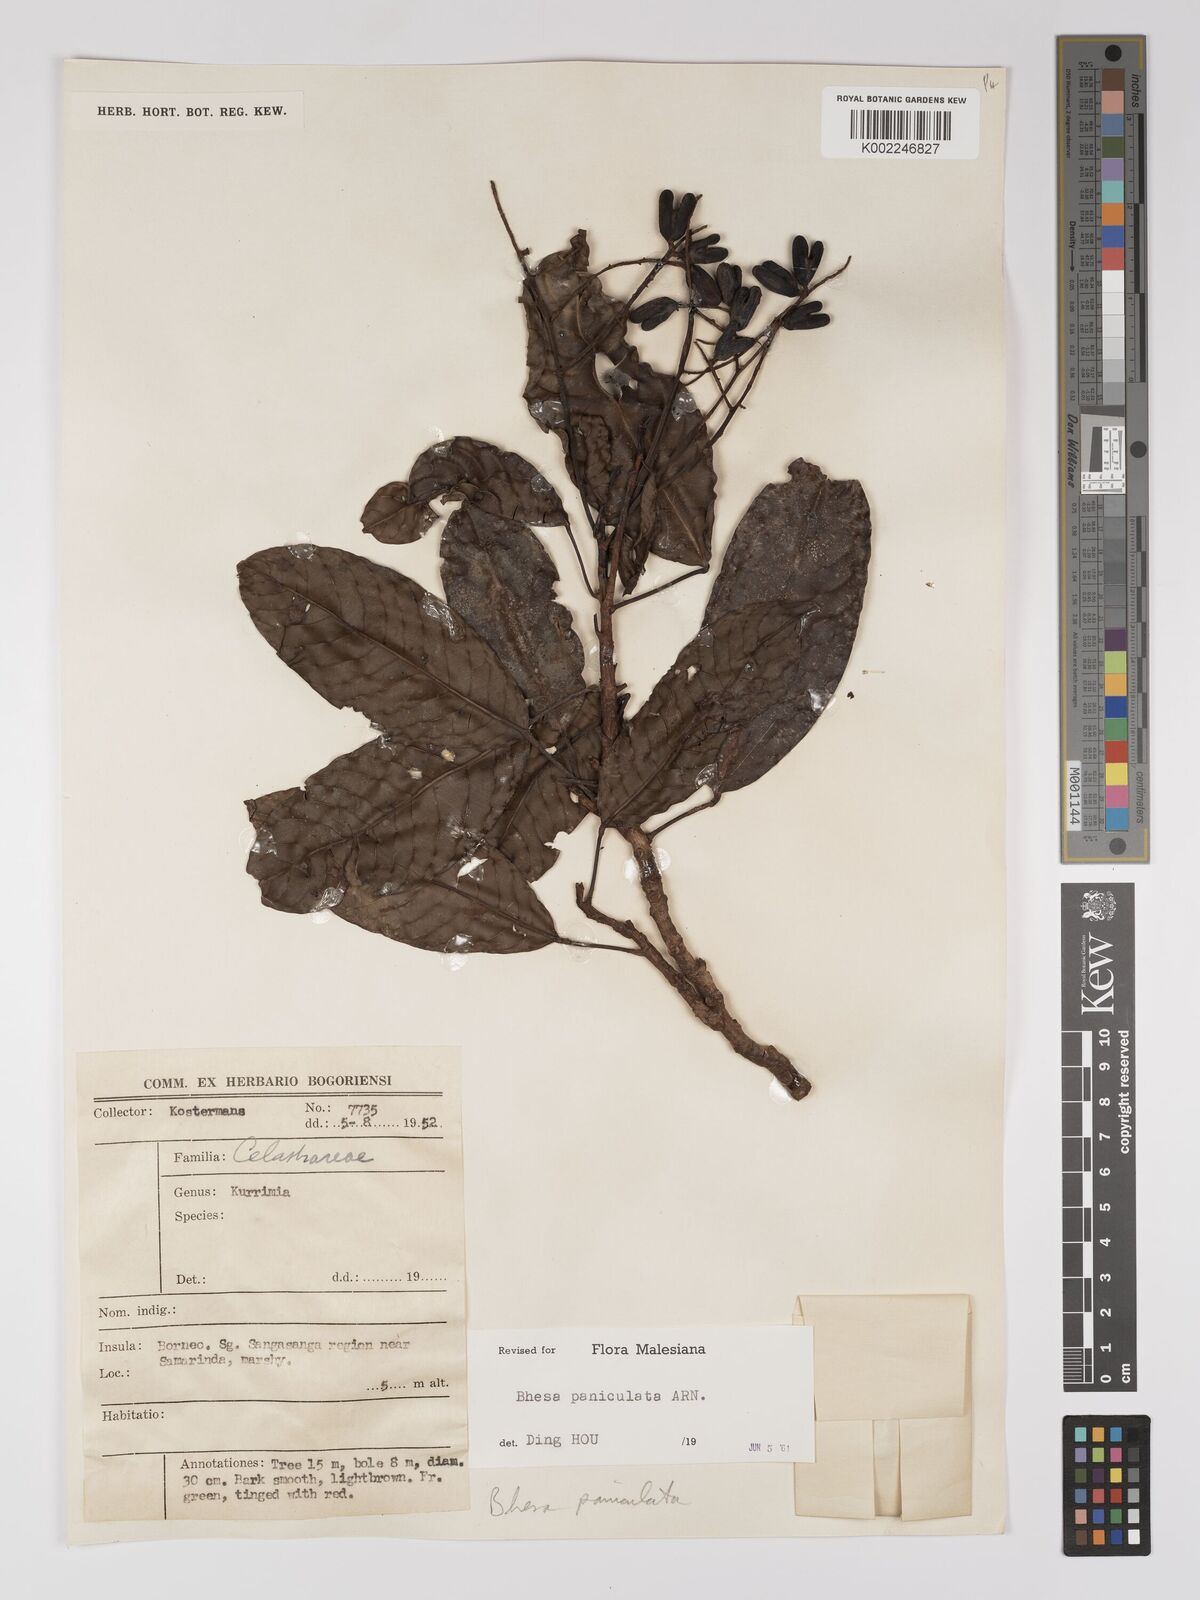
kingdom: Plantae
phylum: Tracheophyta
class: Magnoliopsida
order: Malpighiales
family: Centroplacaceae
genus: Bhesa
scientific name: Bhesa paniculata
